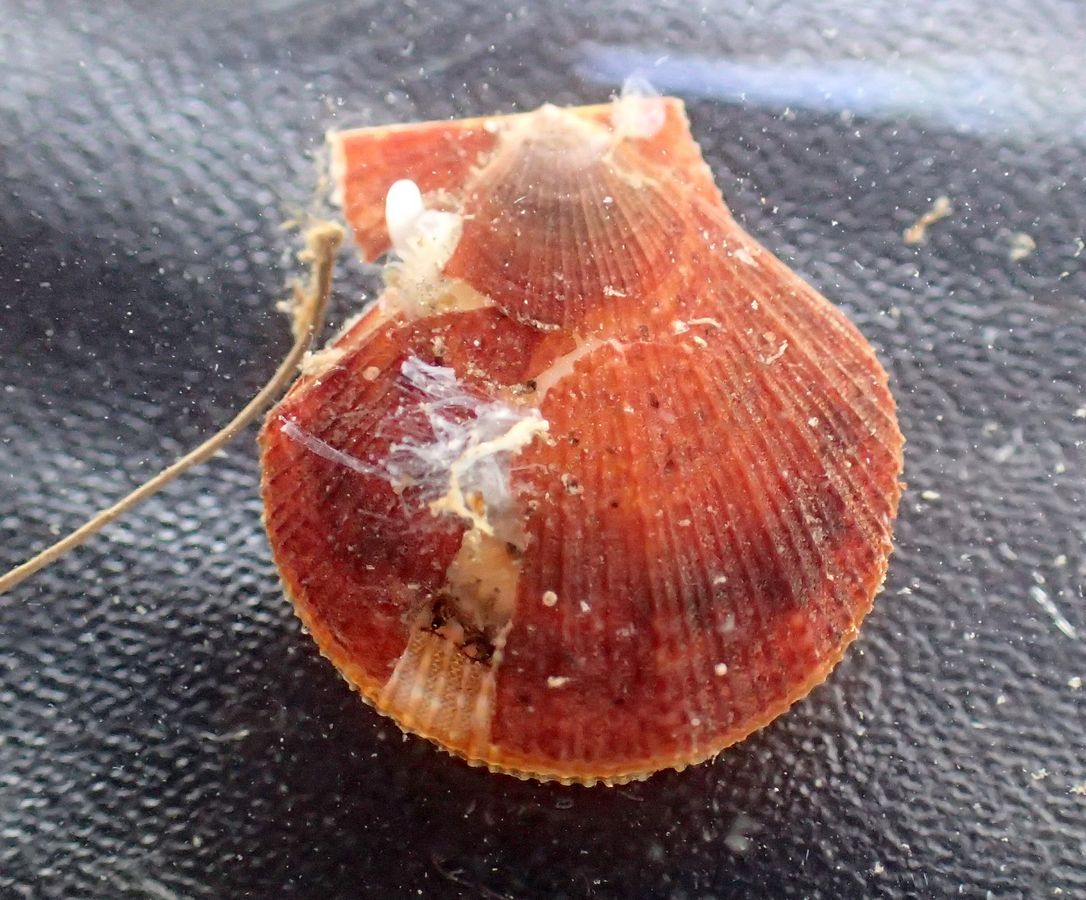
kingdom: Animalia
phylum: Mollusca
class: Bivalvia
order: Pectinida
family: Pectinidae
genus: Chlamys
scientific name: Chlamys islandica
